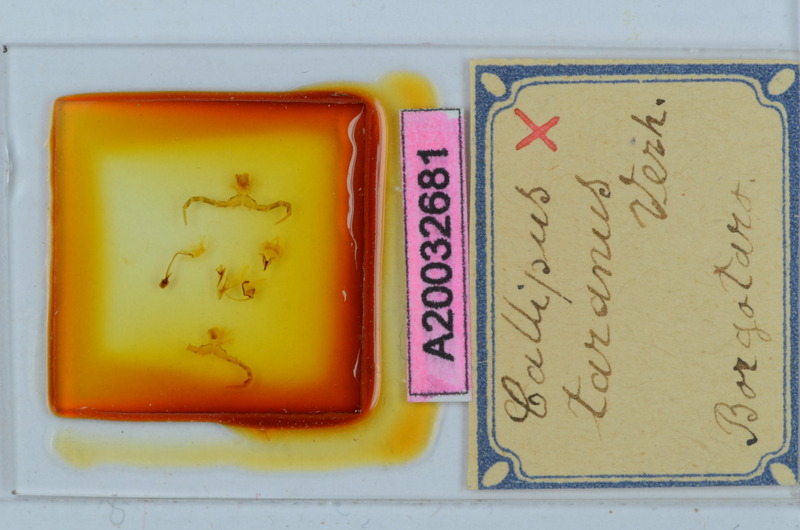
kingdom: Animalia
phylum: Arthropoda
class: Diplopoda
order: Callipodida
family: Callipodidae
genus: Callipus
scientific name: Callipus foetidissimus
